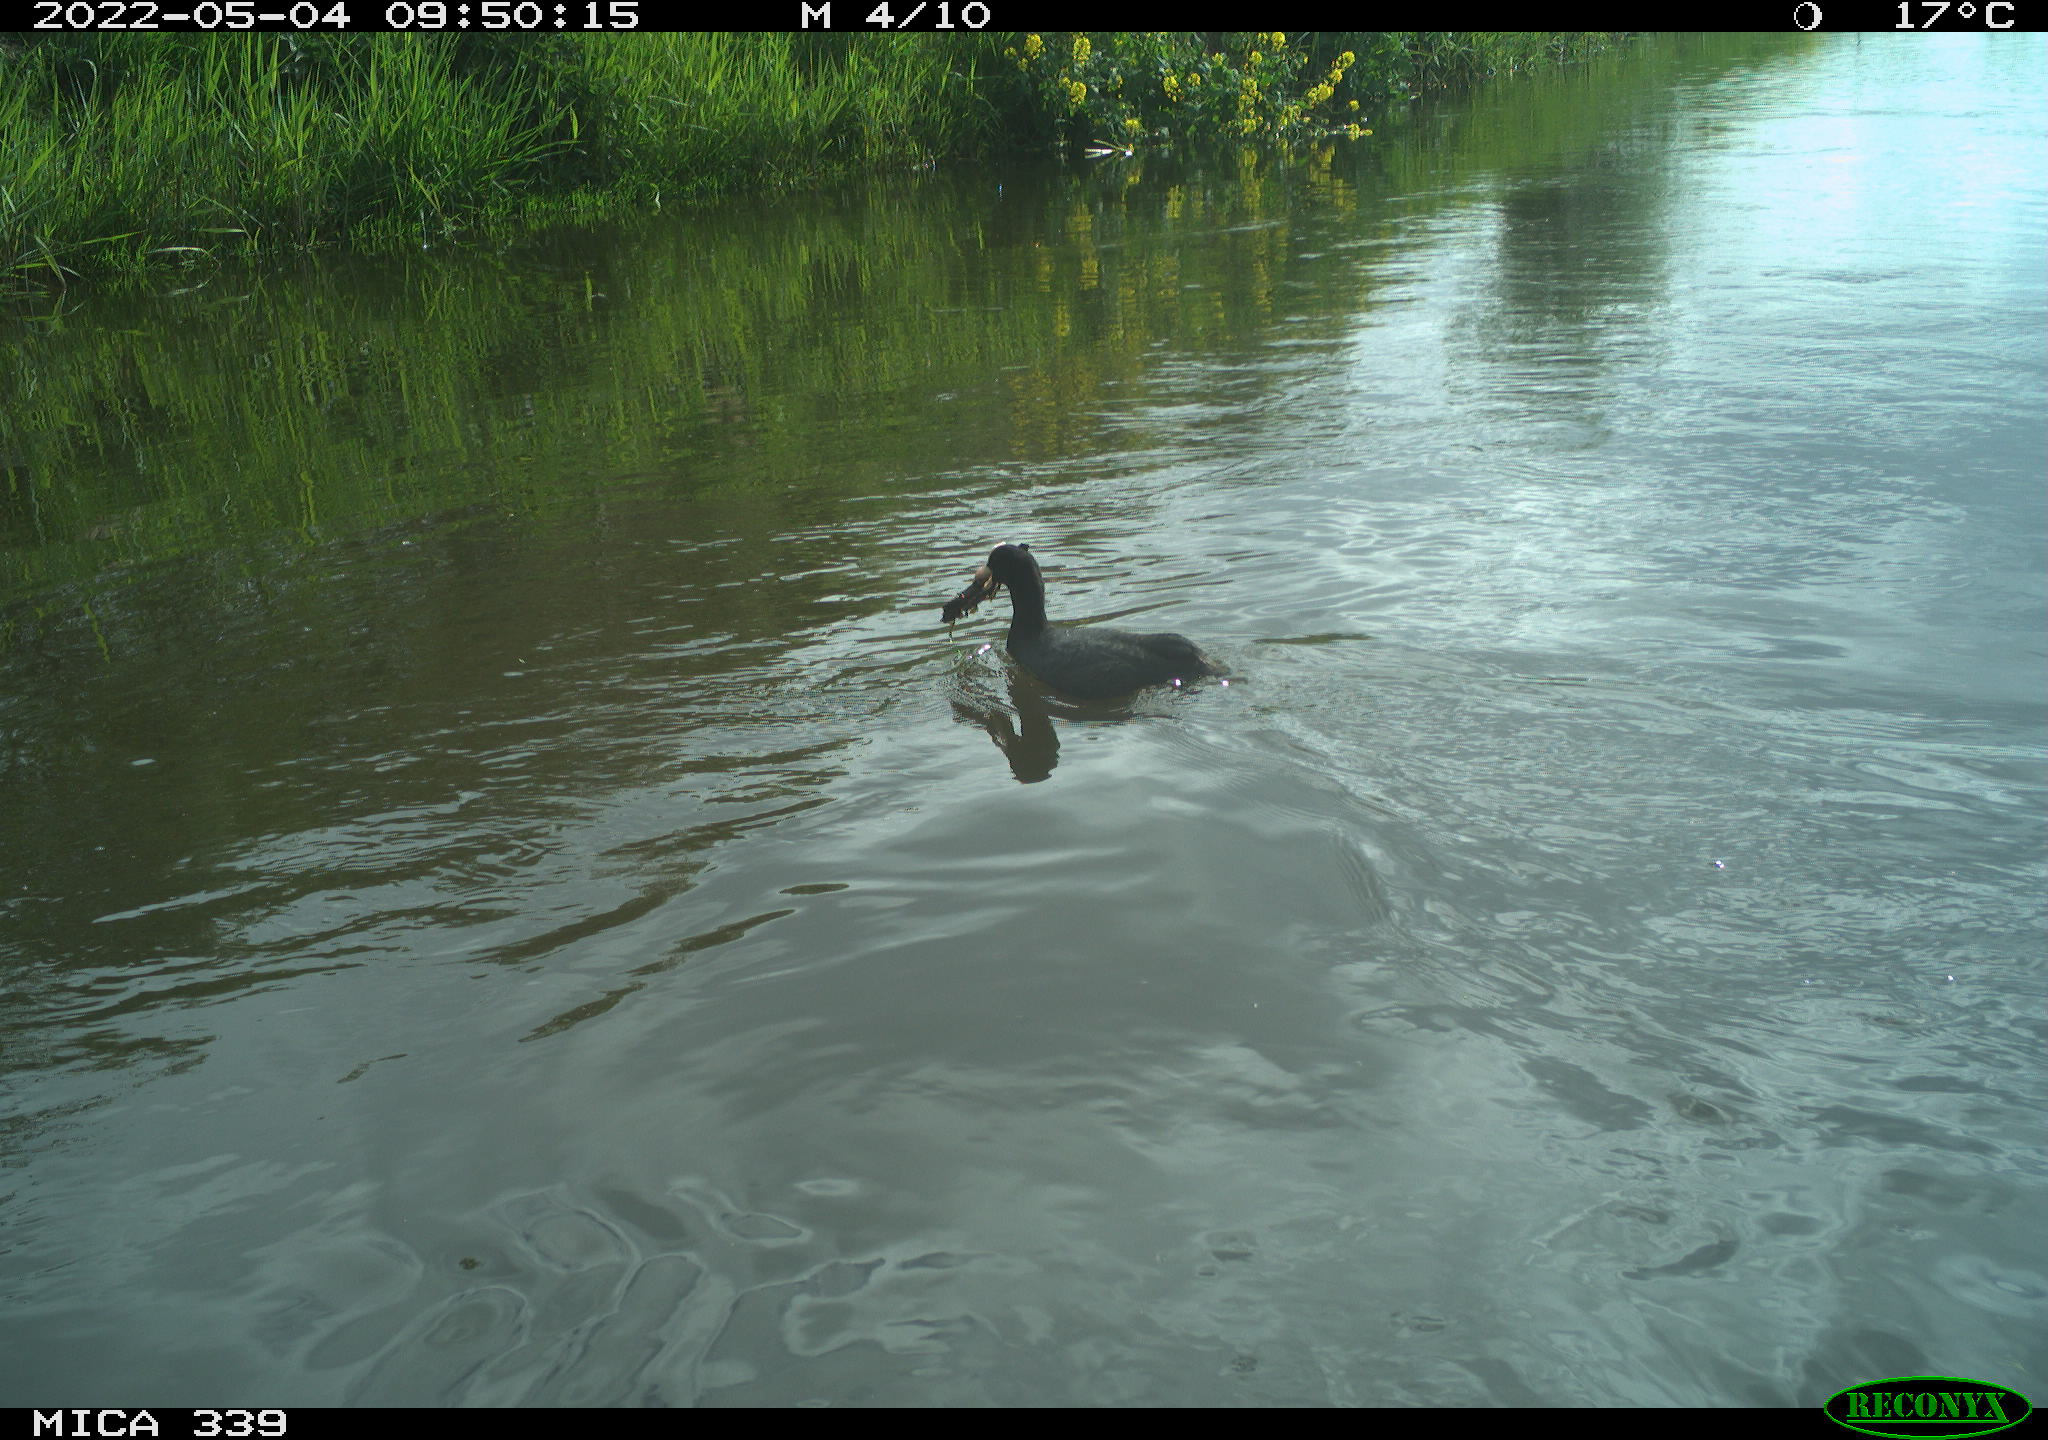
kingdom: Animalia
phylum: Chordata
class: Aves
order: Gruiformes
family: Rallidae
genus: Gallinula
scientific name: Gallinula chloropus
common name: Common moorhen
